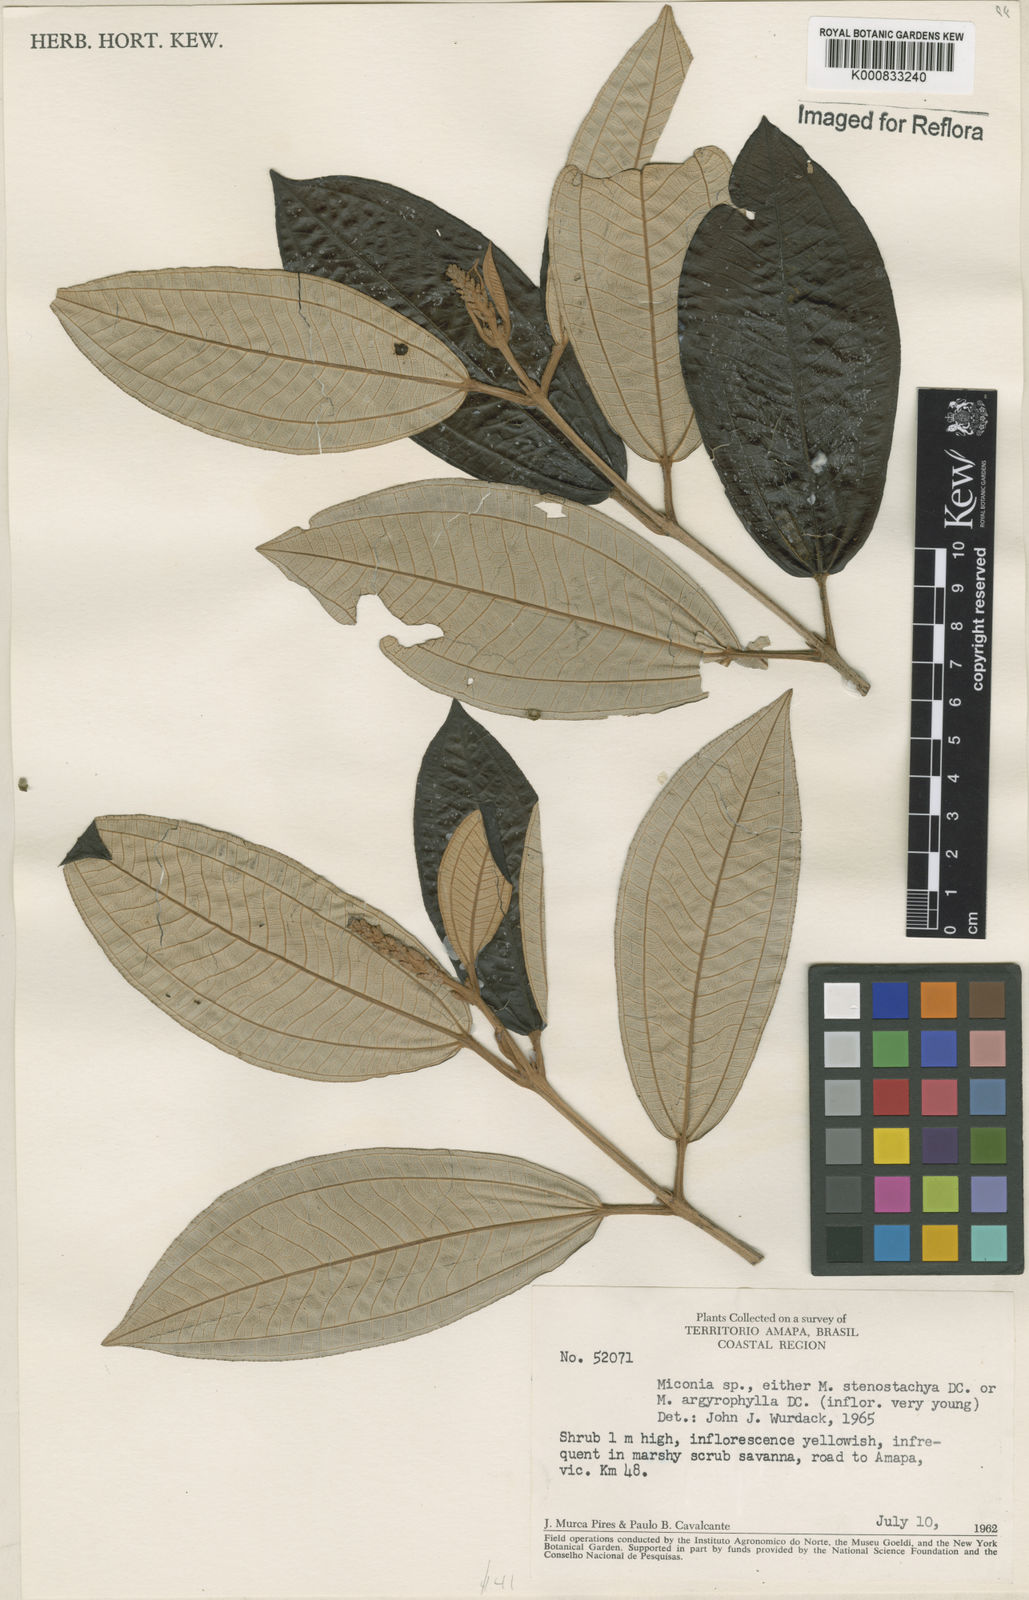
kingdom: Plantae
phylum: Tracheophyta
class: Magnoliopsida
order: Myrtales
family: Melastomataceae
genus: Miconia
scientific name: Miconia stenostachya
